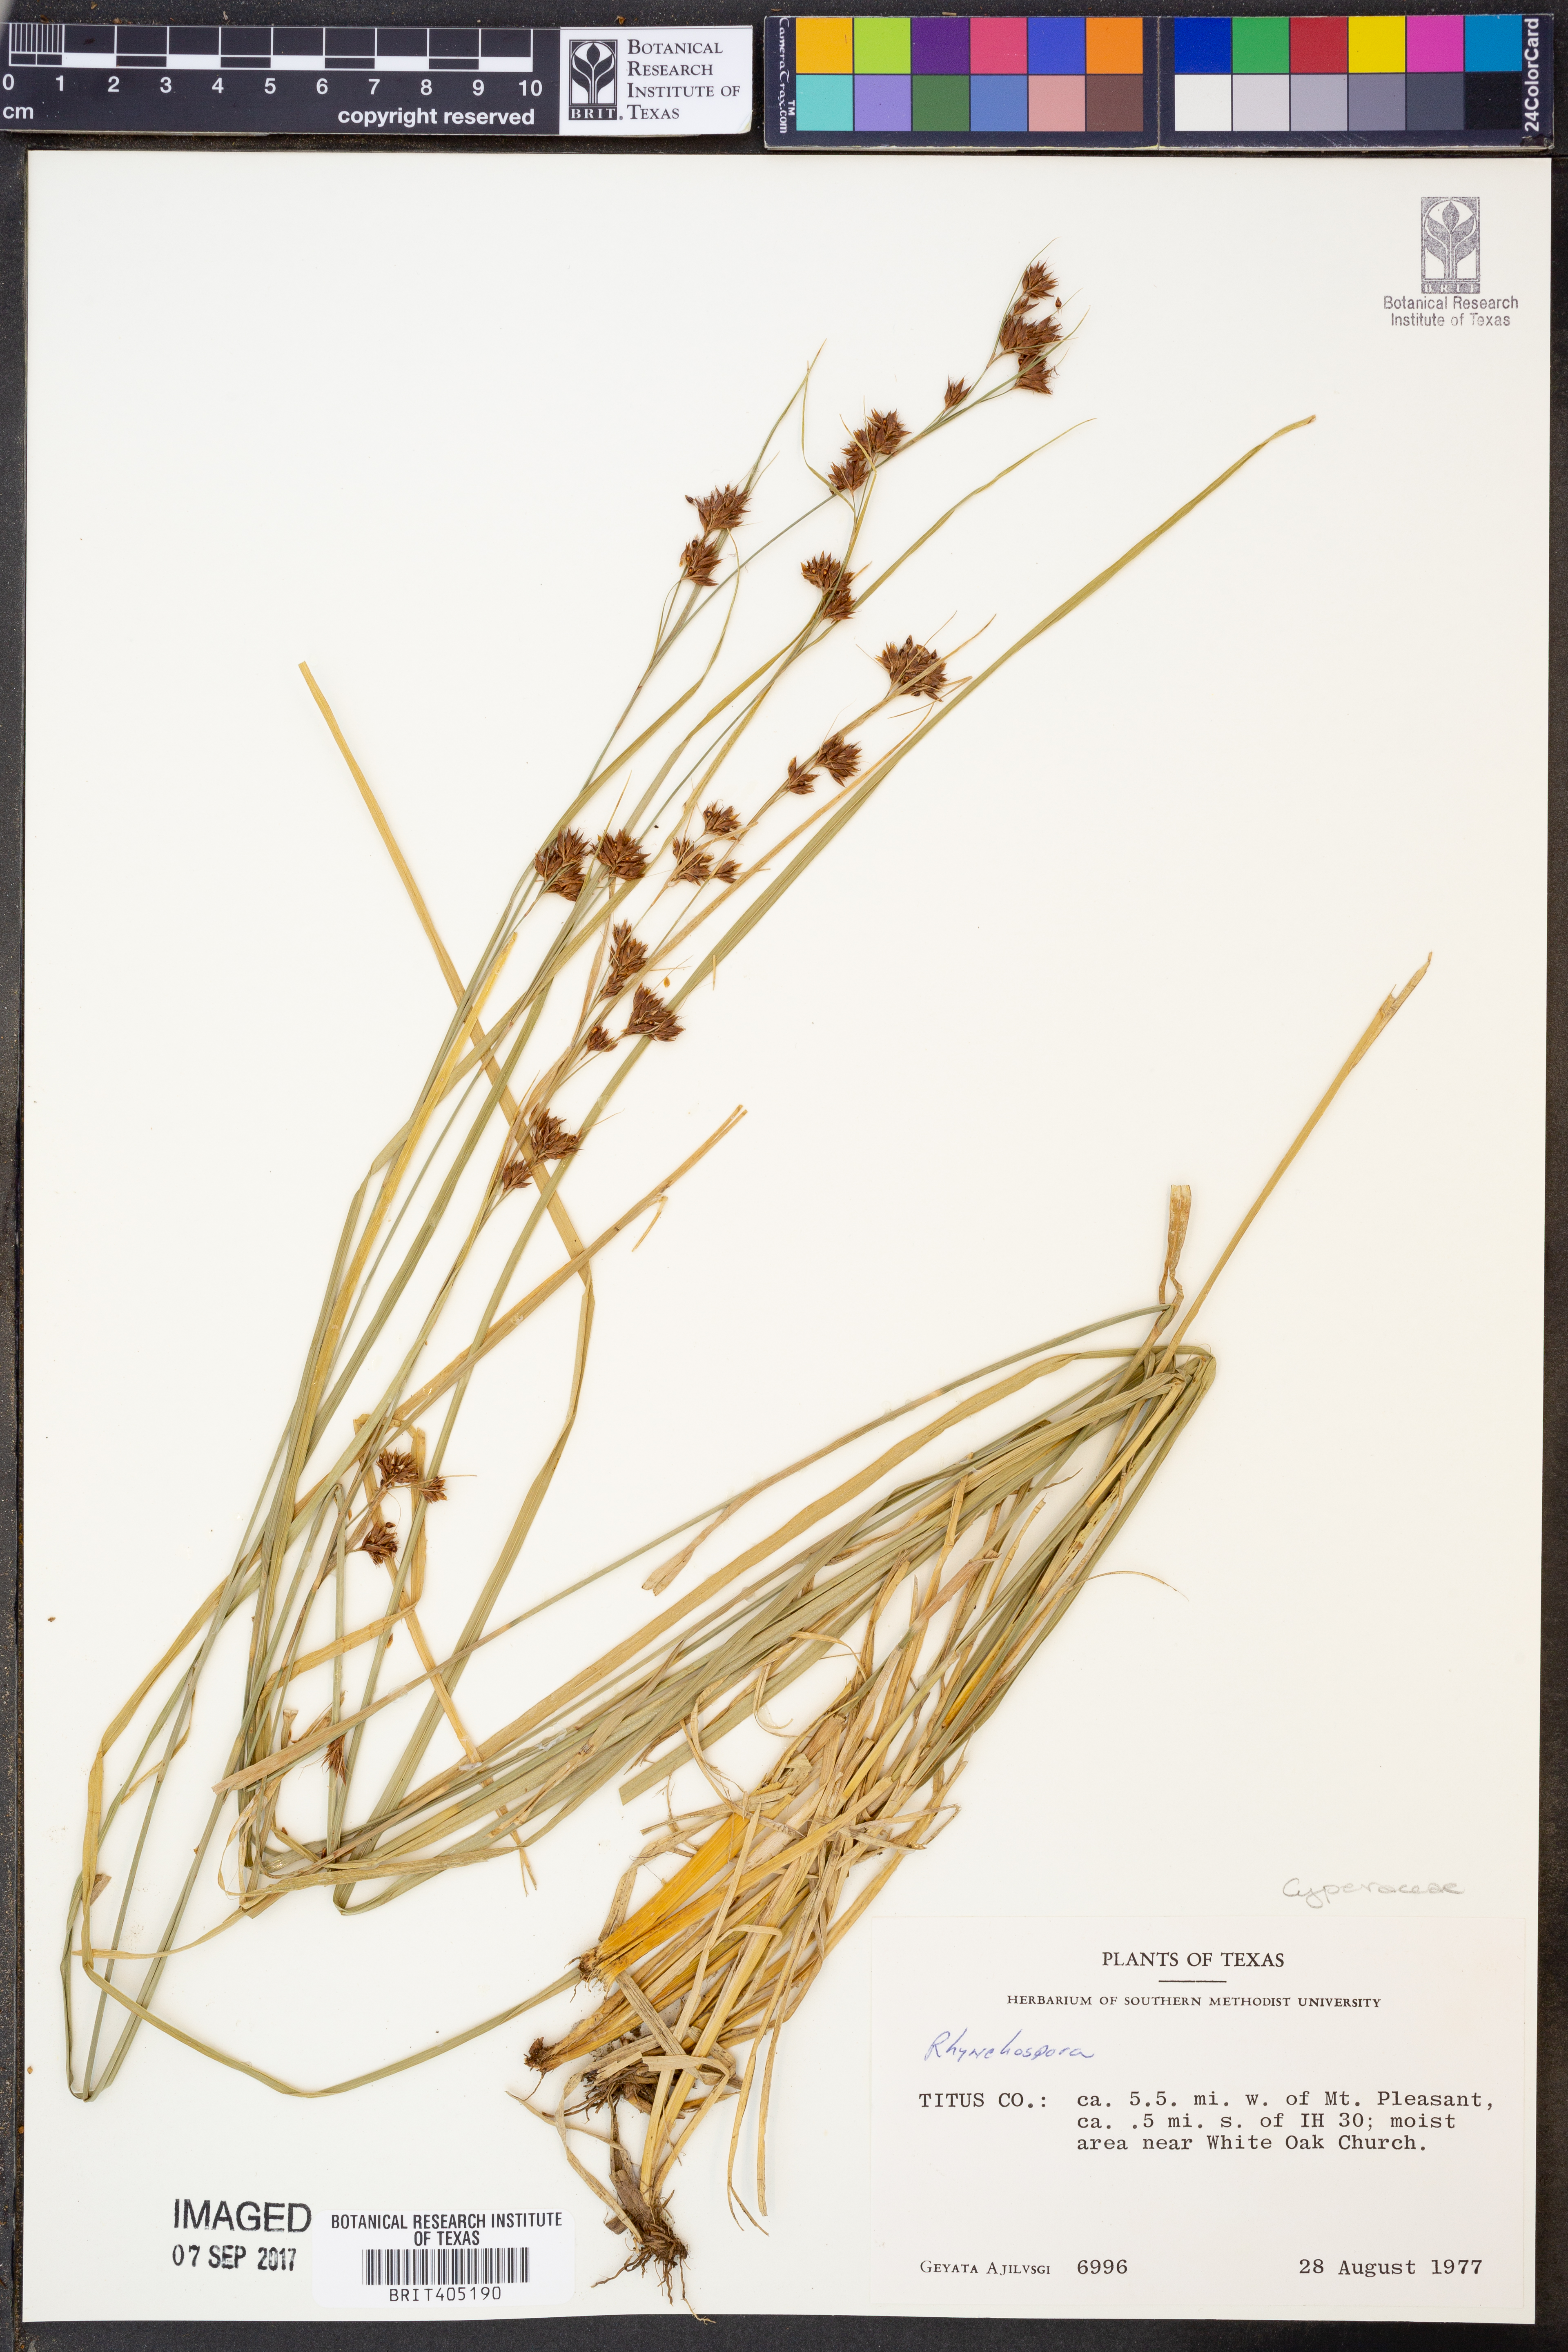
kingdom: Plantae
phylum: Tracheophyta
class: Liliopsida
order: Poales
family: Cyperaceae
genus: Rhynchospora
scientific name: Rhynchospora
